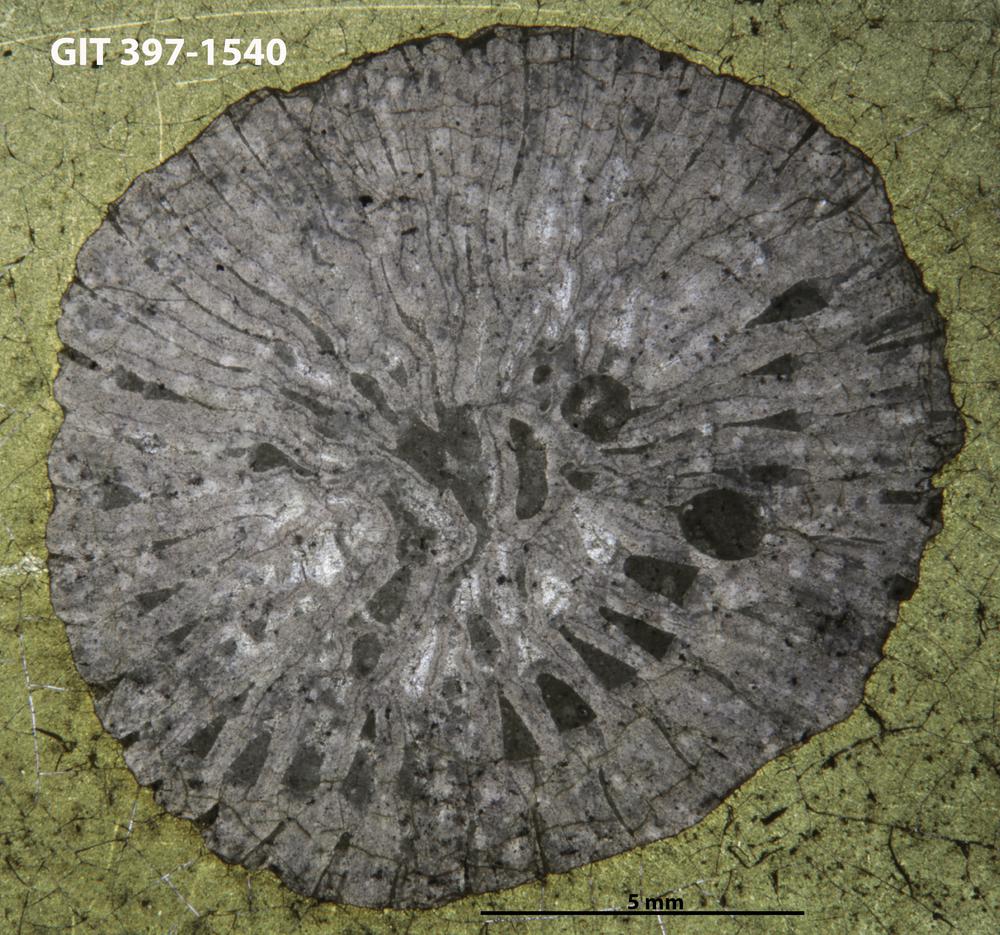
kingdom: Animalia
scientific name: Animalia
